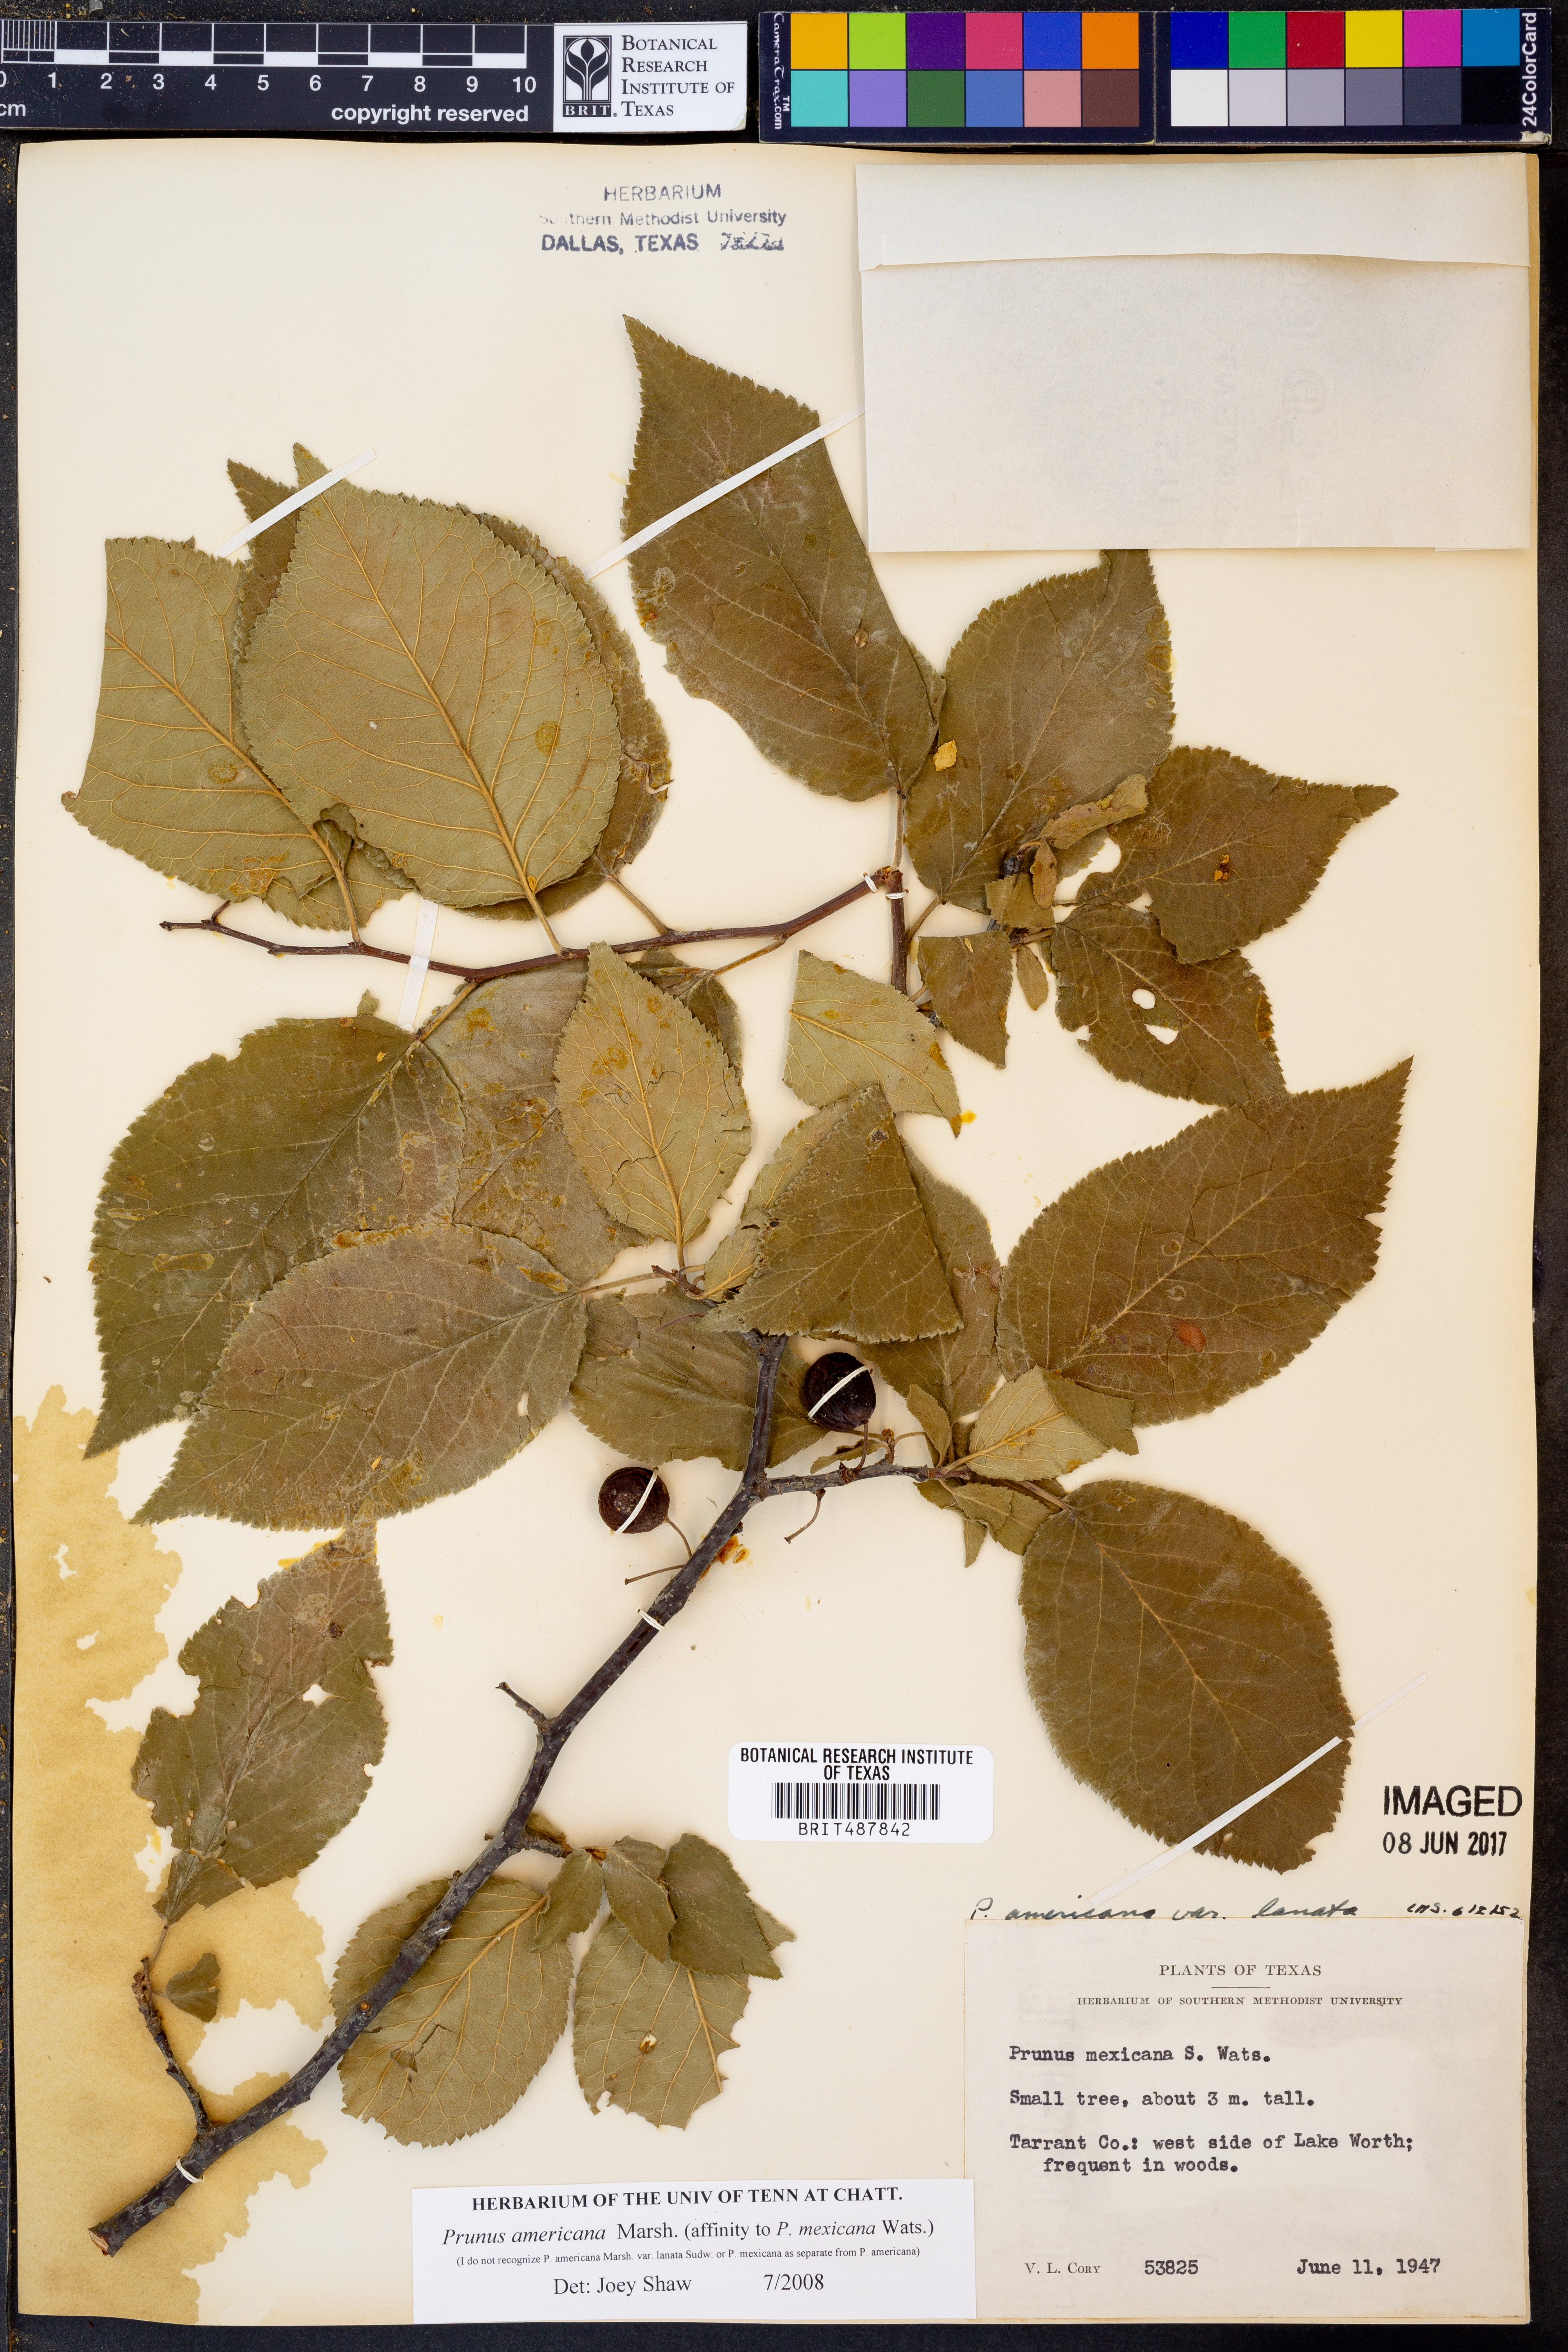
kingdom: Plantae
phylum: Tracheophyta
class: Magnoliopsida
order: Rosales
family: Rosaceae
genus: Prunus
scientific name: Prunus americana
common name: American plum
